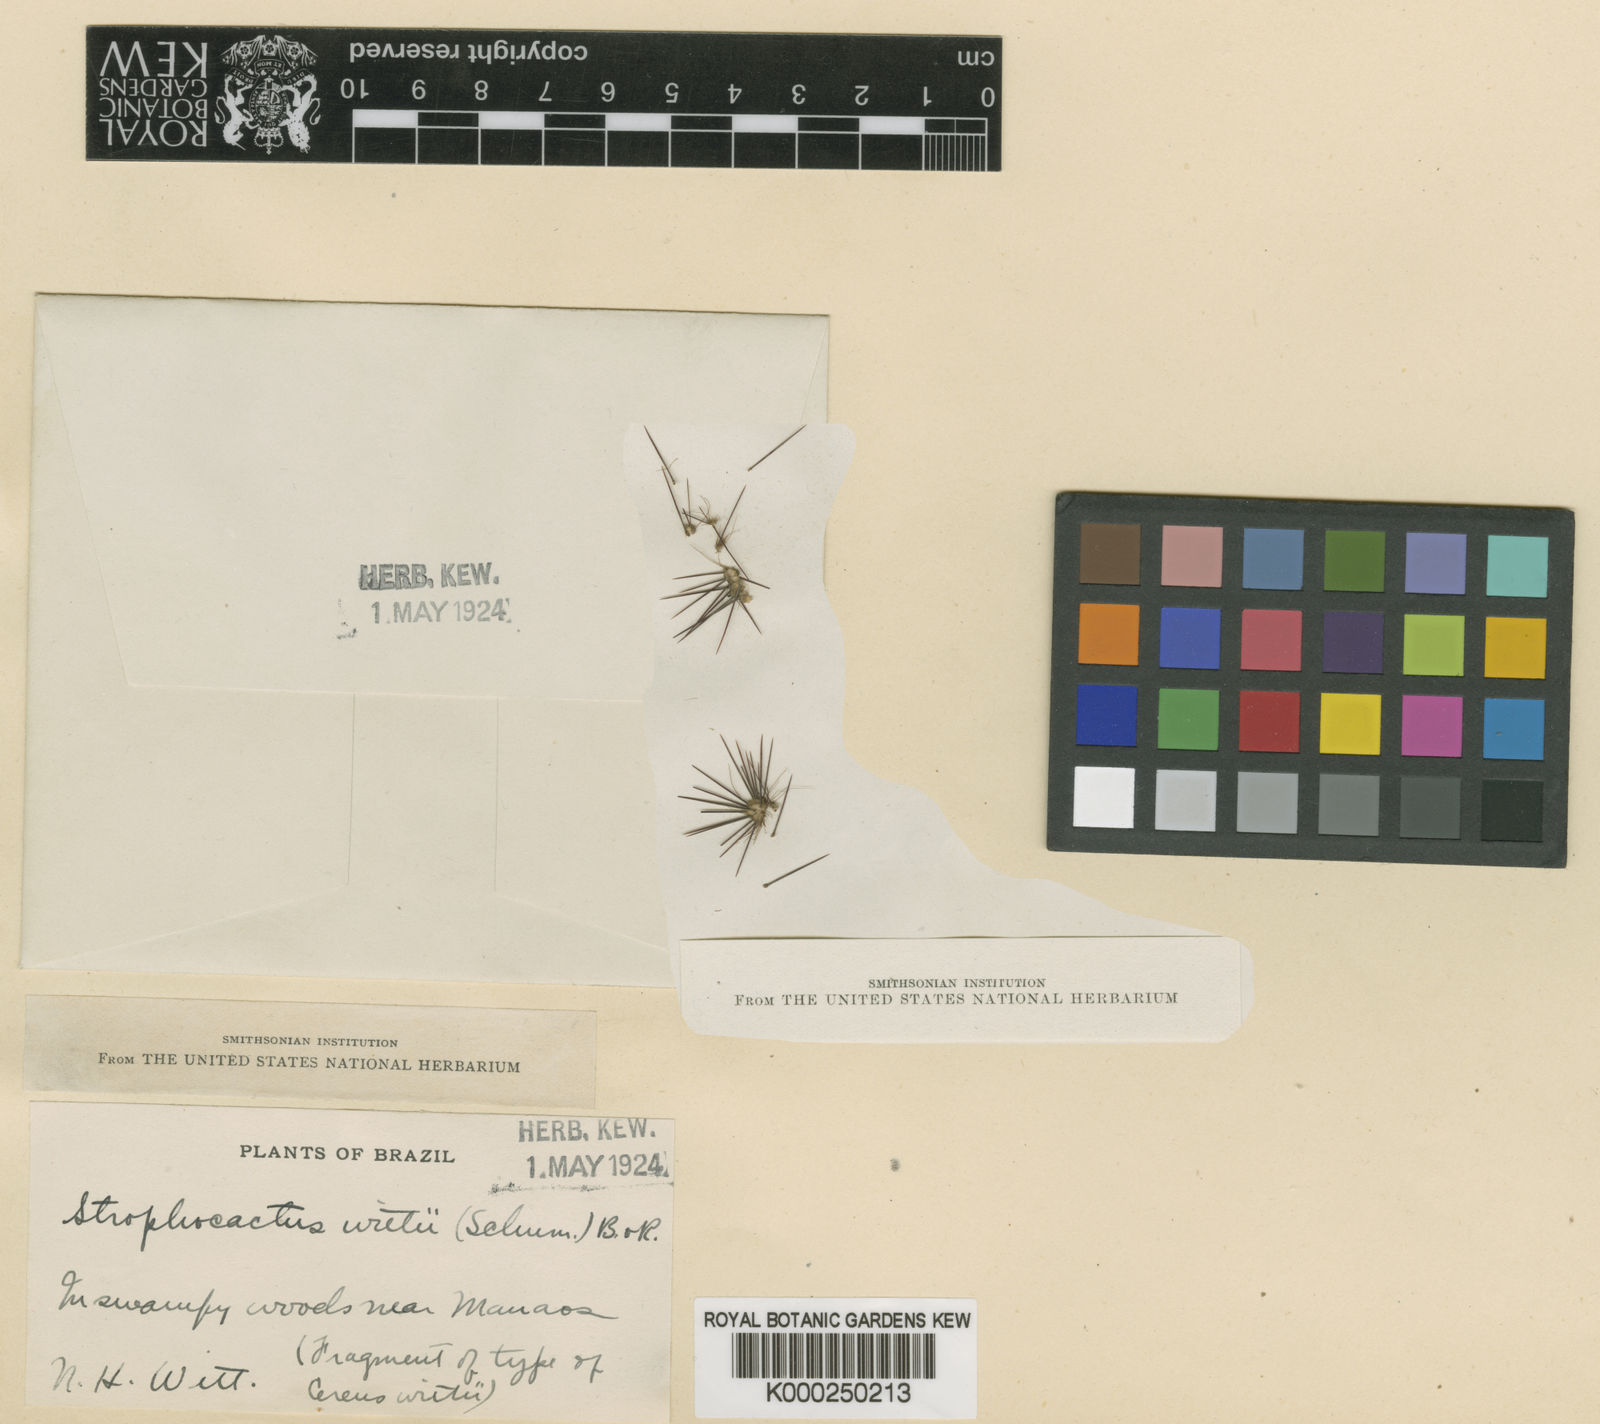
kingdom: Plantae
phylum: Tracheophyta
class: Magnoliopsida
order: Caryophyllales
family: Cactaceae
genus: Strophocactus
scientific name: Strophocactus wittii
